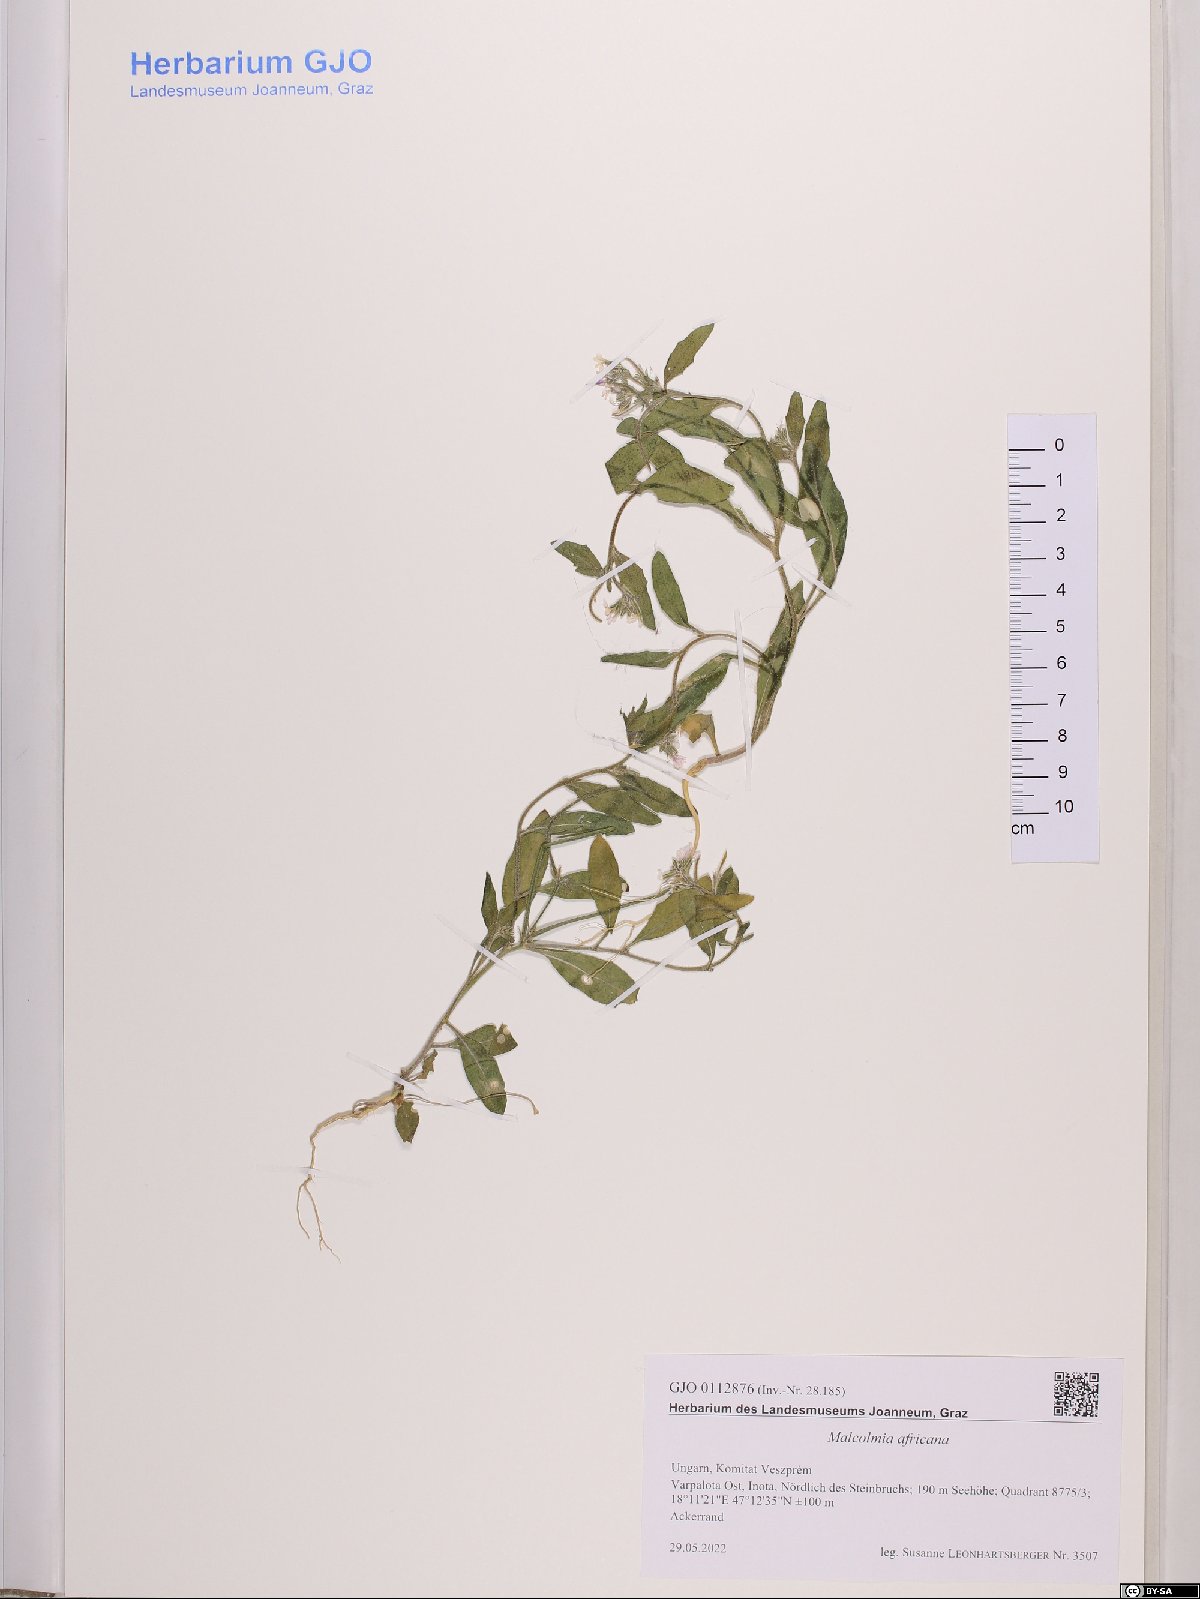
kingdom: Plantae
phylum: Tracheophyta
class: Magnoliopsida
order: Brassicales
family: Brassicaceae
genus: Malcolmia
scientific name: Malcolmia africana
